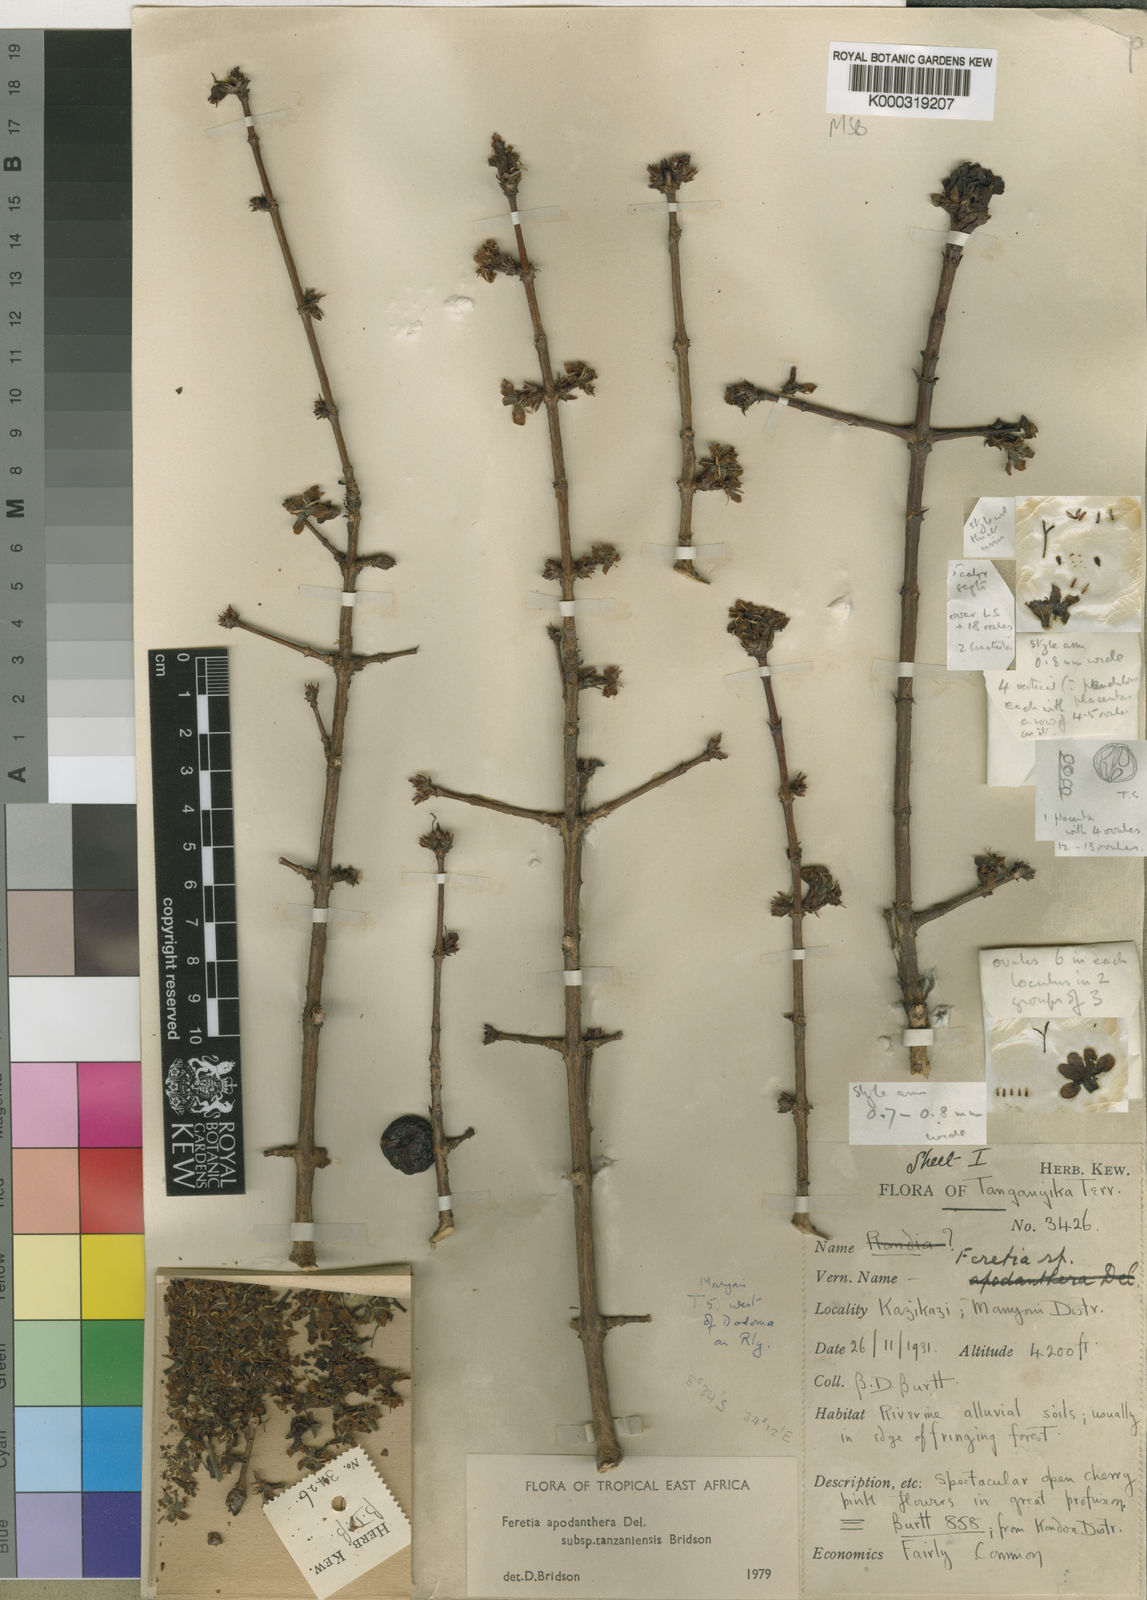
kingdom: Plantae
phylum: Tracheophyta
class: Magnoliopsida
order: Gentianales
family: Rubiaceae
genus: Feretia
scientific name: Feretia apodanthera
